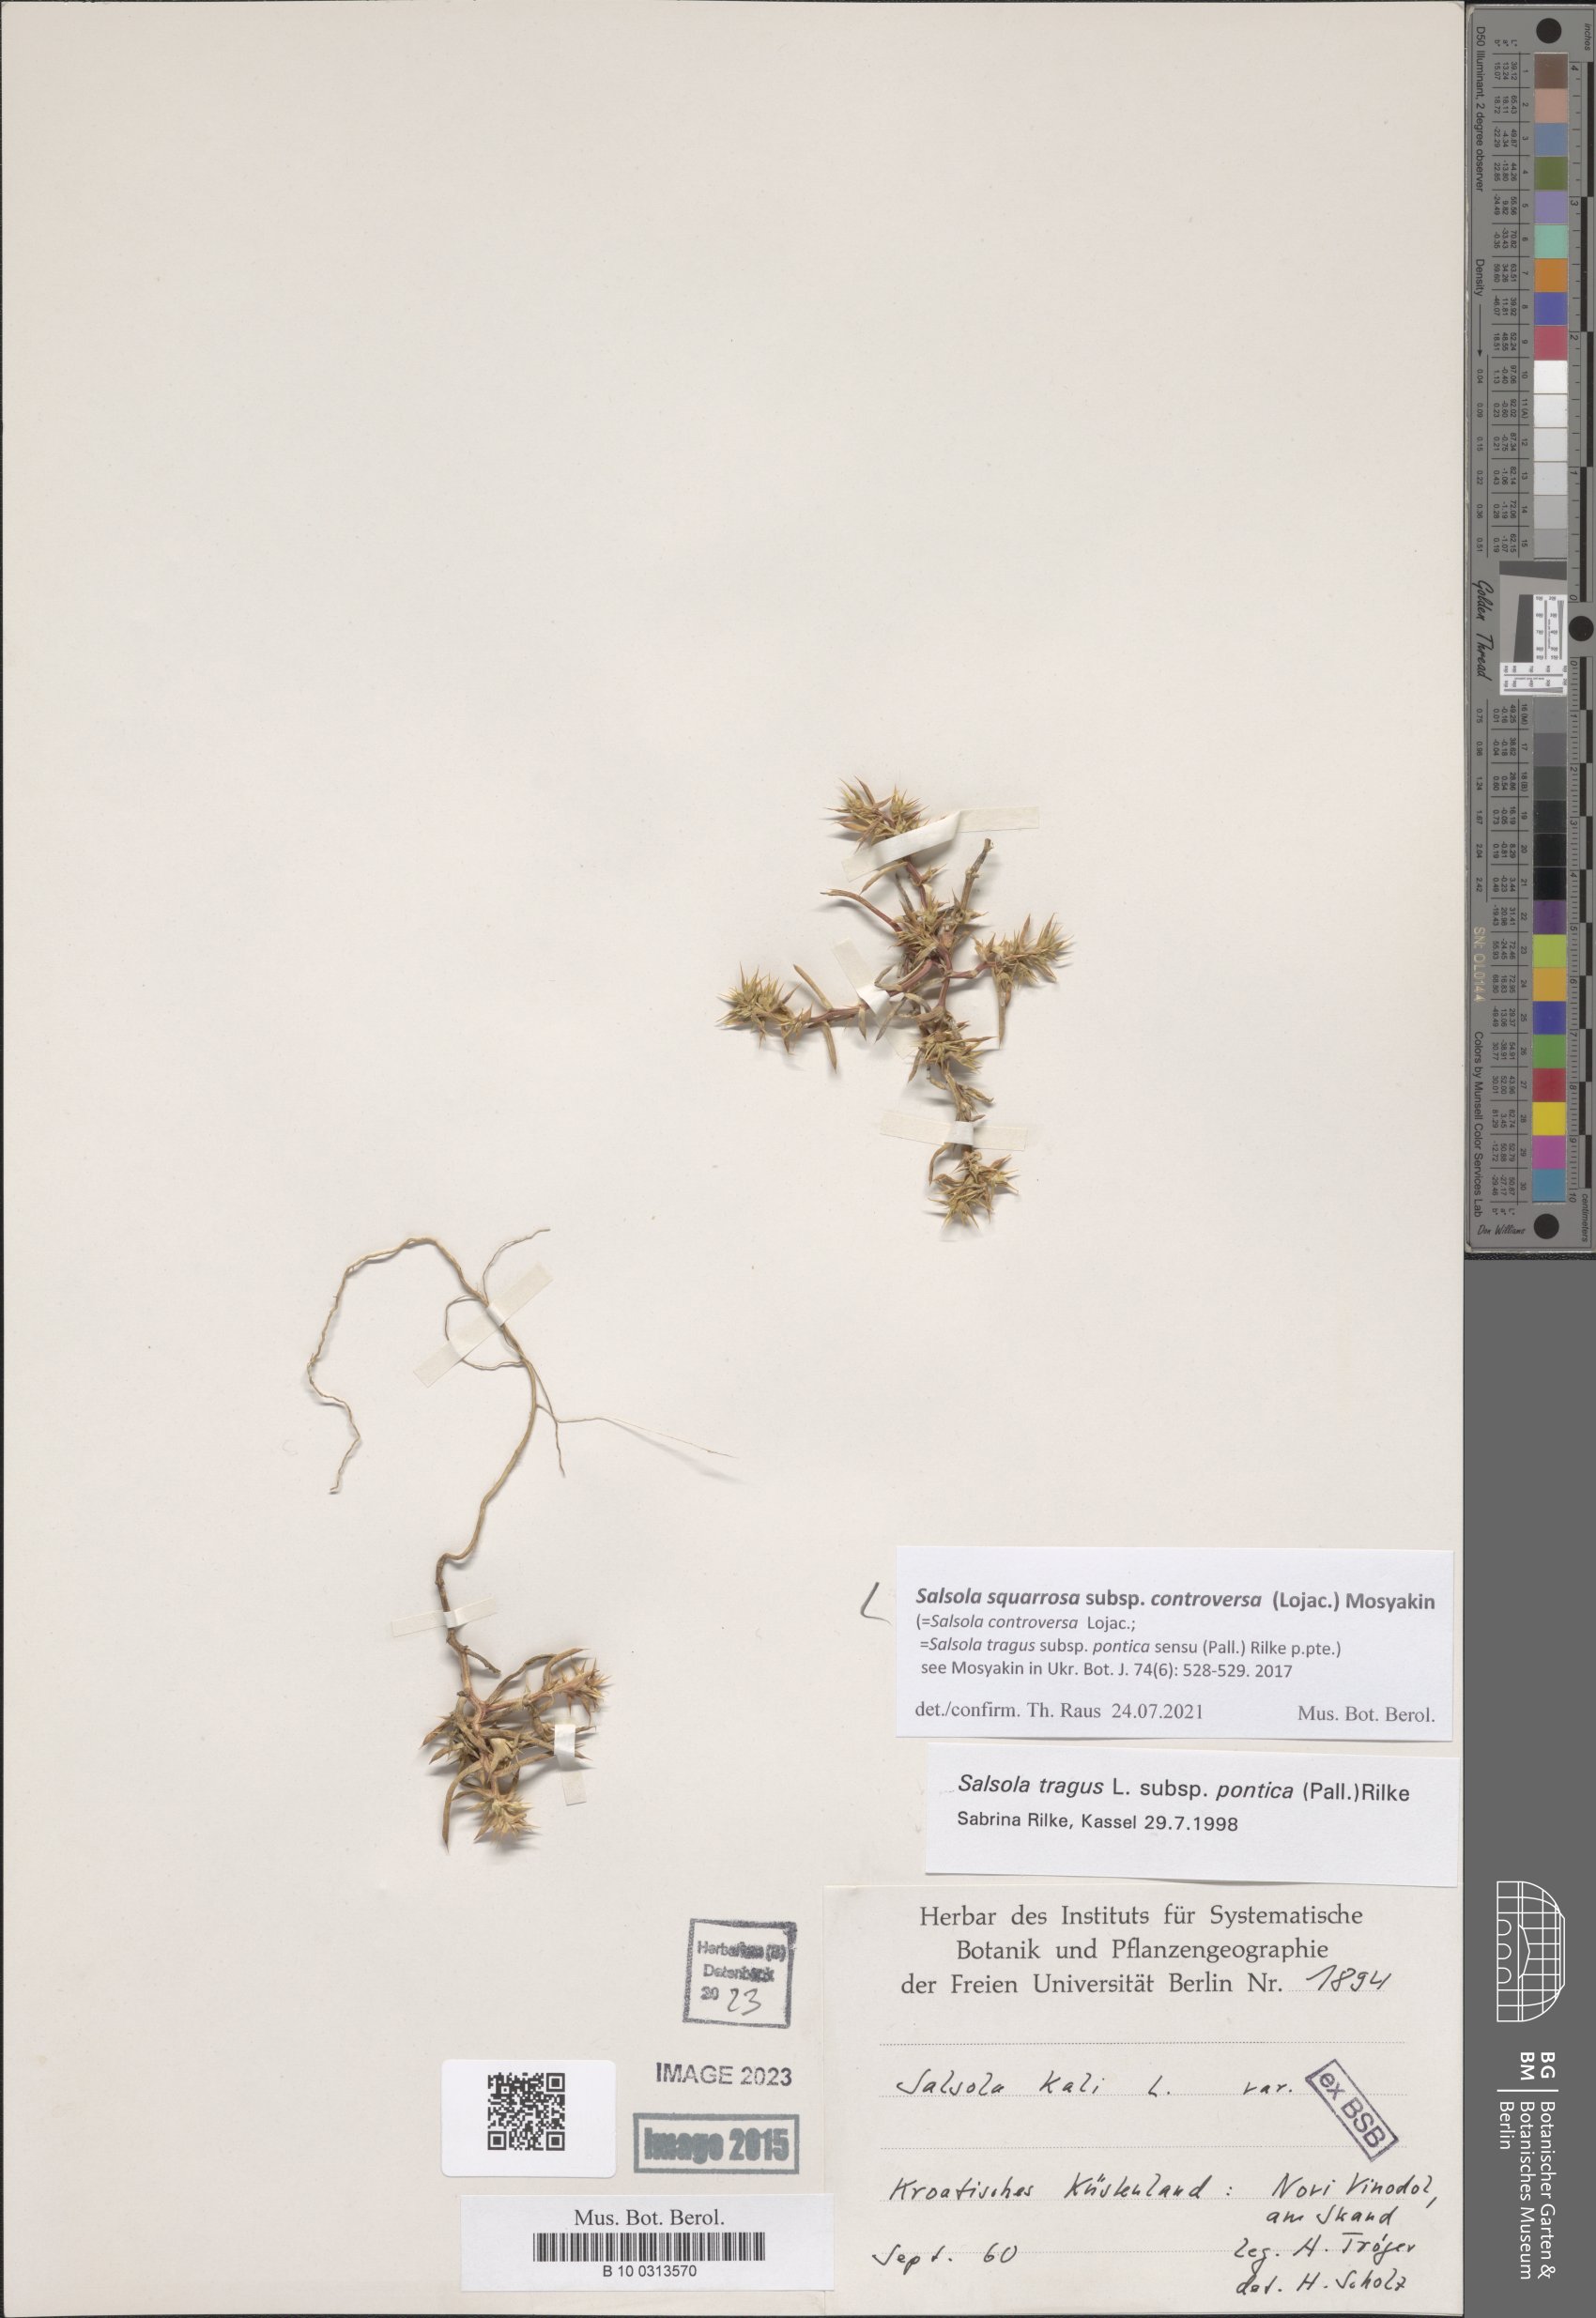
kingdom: Plantae
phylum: Tracheophyta
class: Magnoliopsida
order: Caryophyllales
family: Amaranthaceae
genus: Salsola
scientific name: Salsola squarrosa
